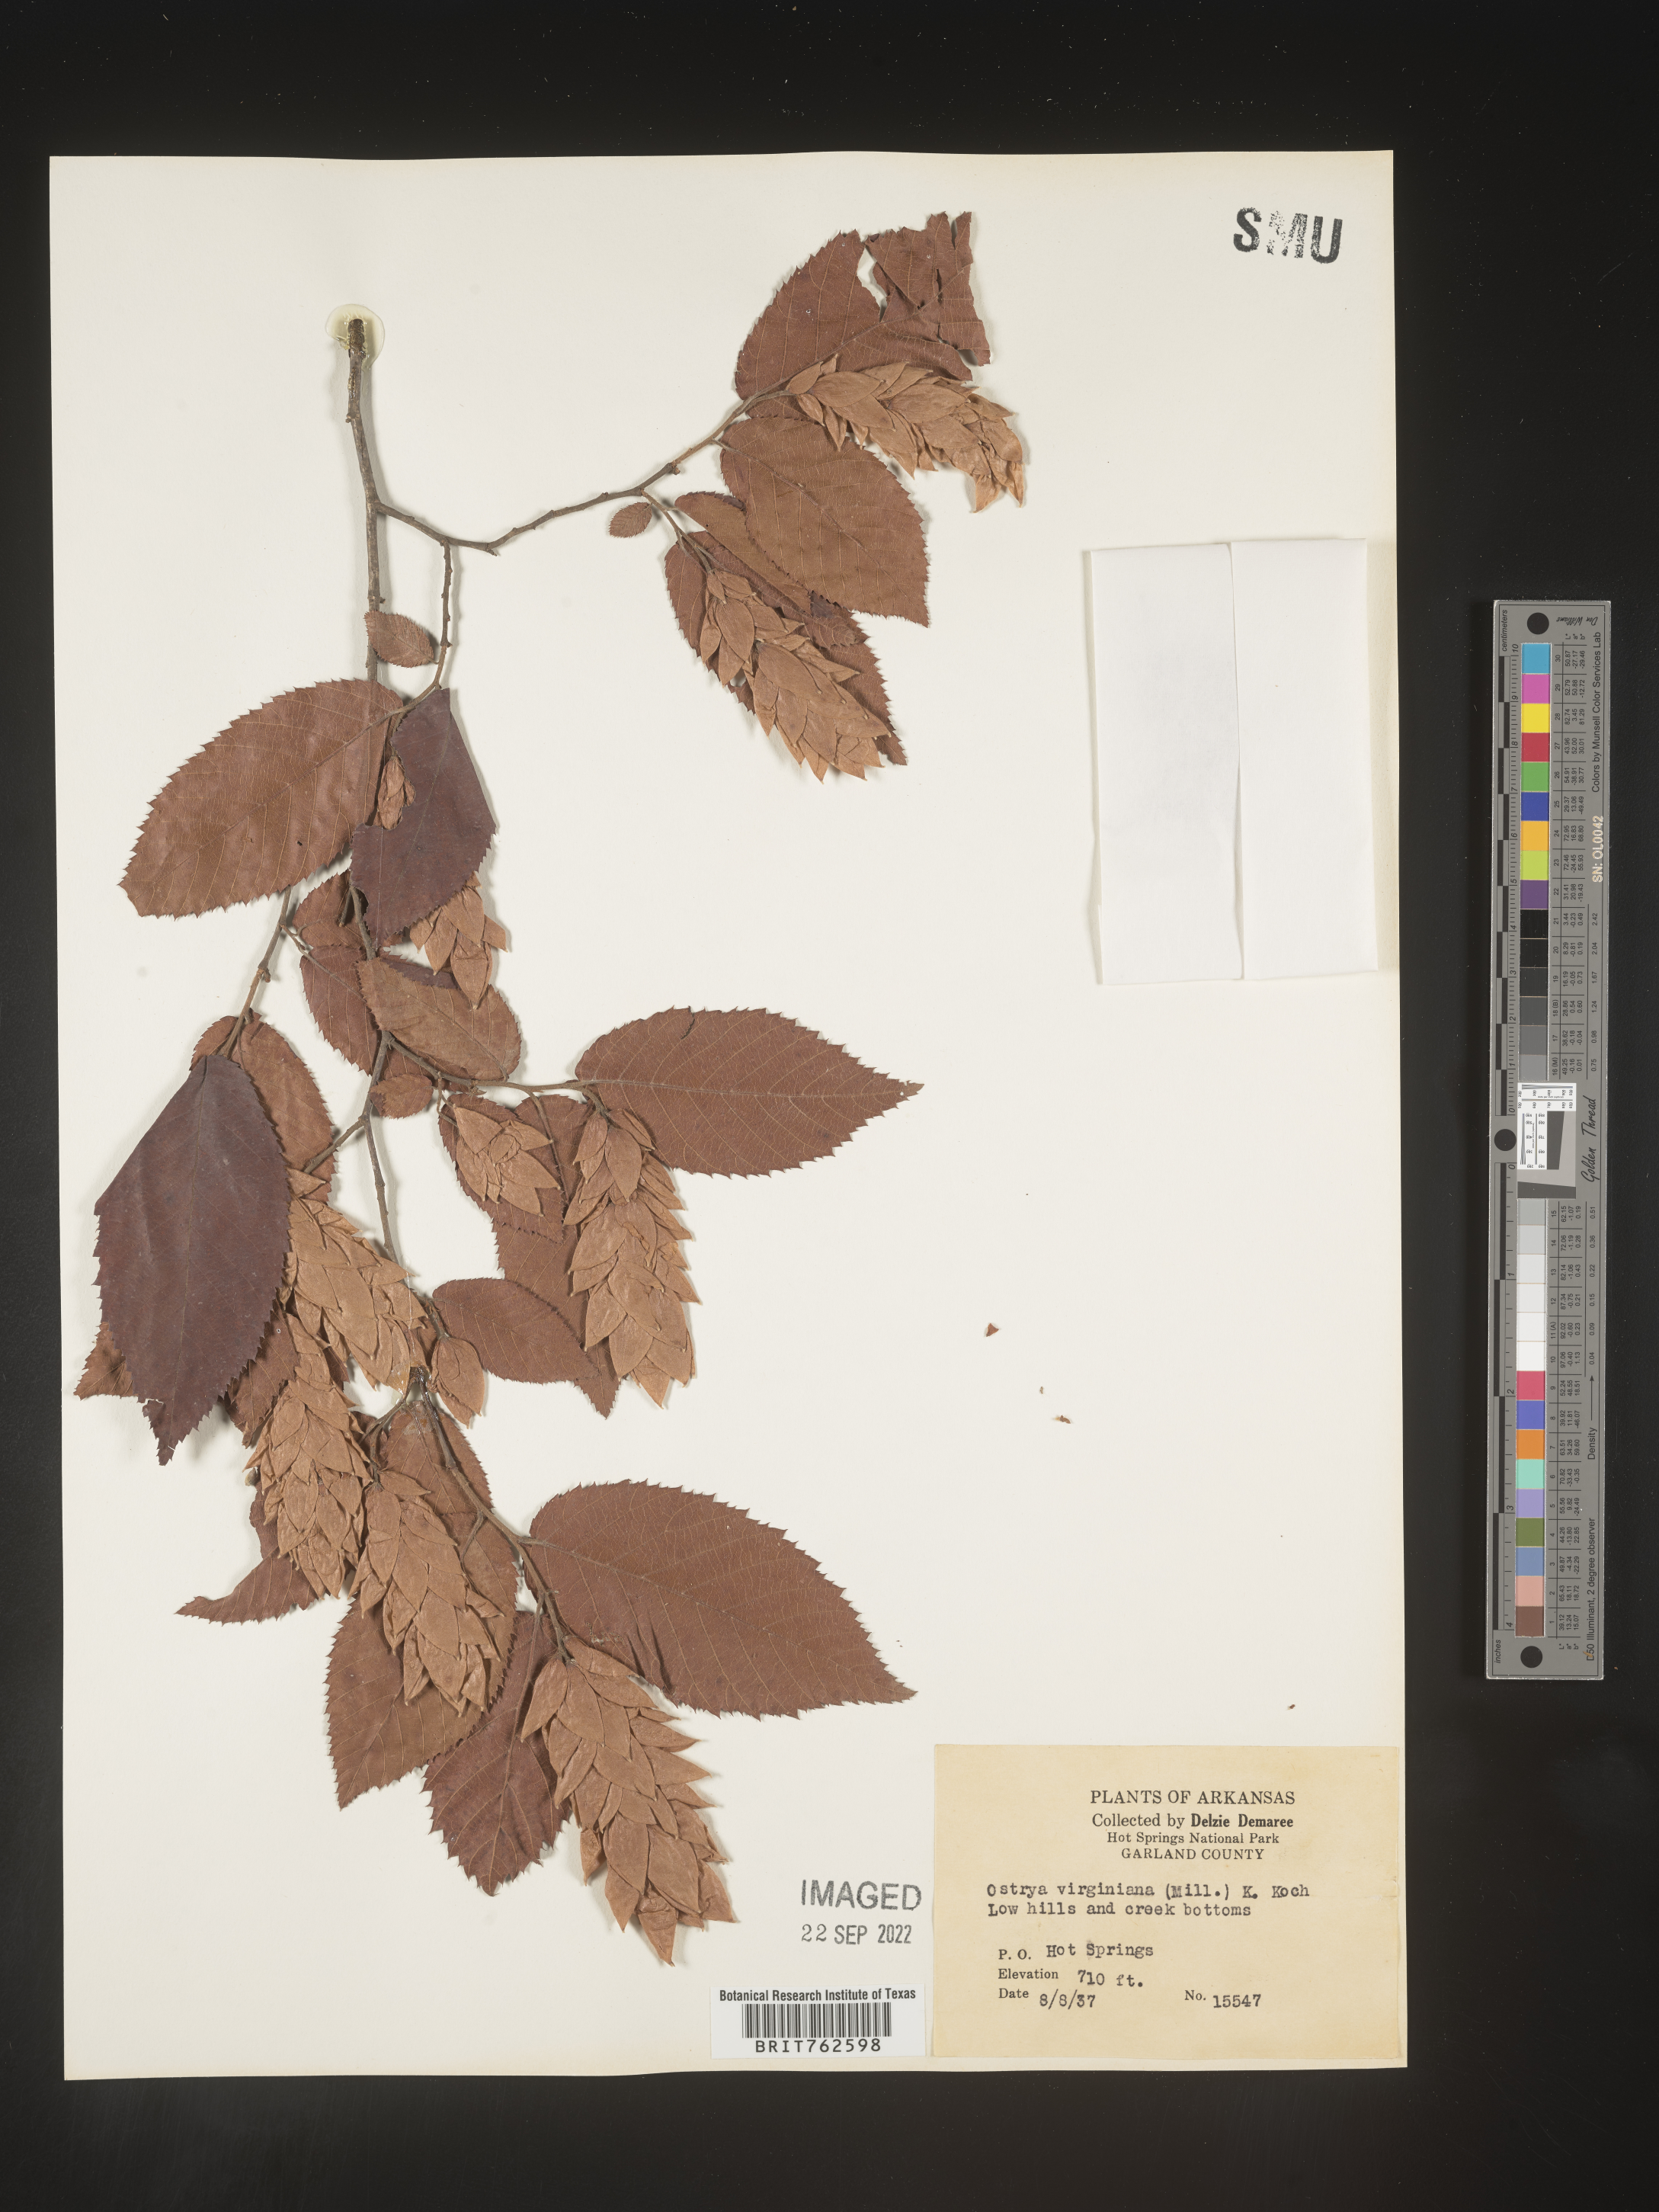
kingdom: Plantae
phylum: Tracheophyta
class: Magnoliopsida
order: Fagales
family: Betulaceae
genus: Ostrya
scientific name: Ostrya virginiana
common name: Ironwood
